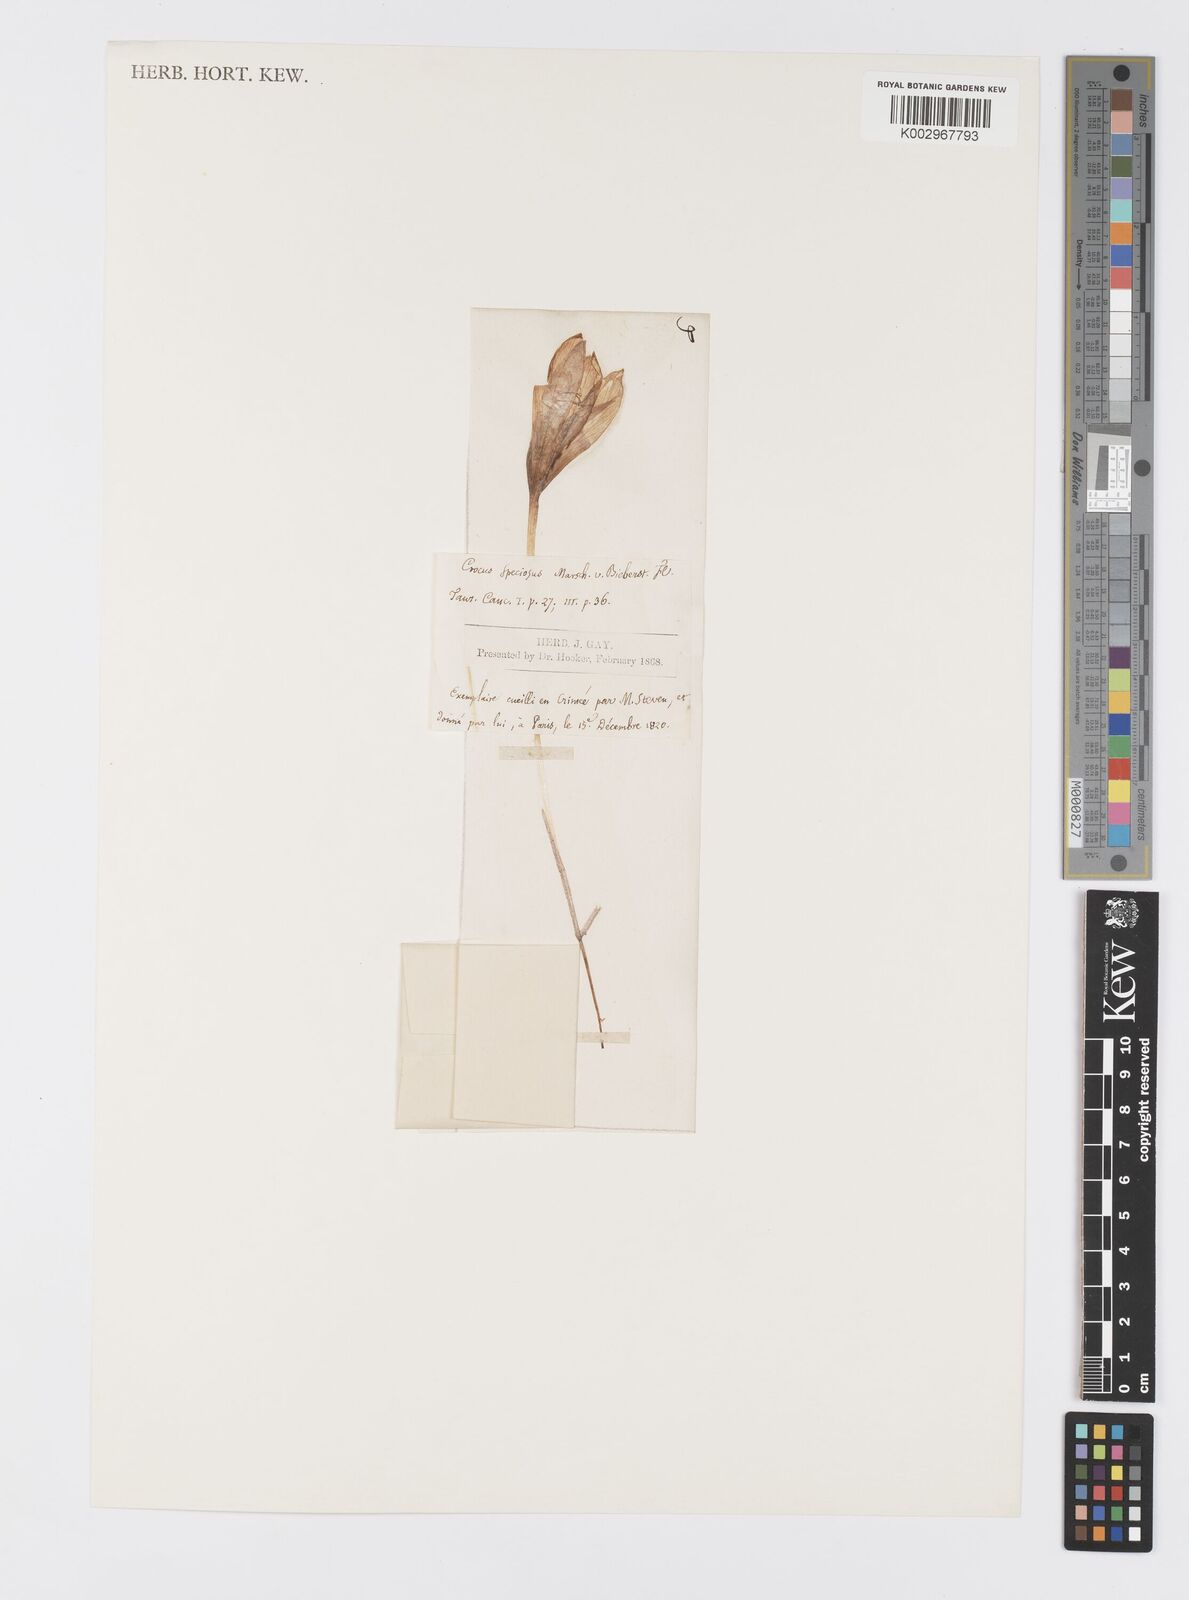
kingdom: Plantae
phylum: Tracheophyta
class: Liliopsida
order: Asparagales
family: Iridaceae
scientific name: Iridaceae
